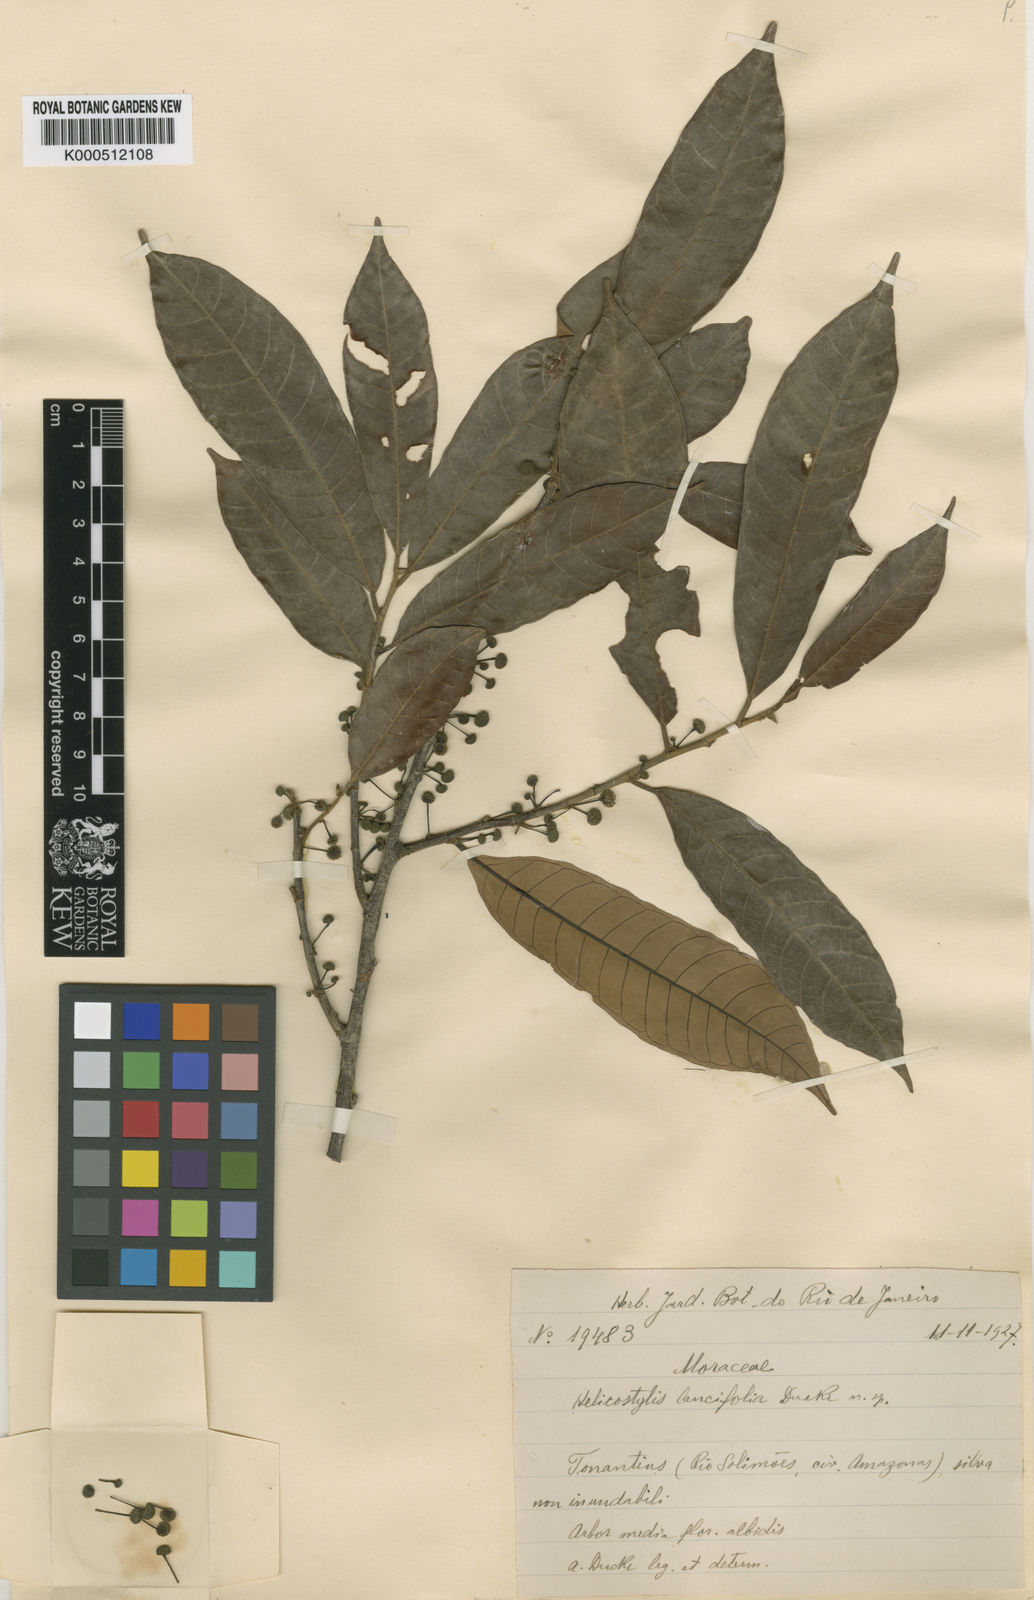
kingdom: Plantae
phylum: Tracheophyta
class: Magnoliopsida
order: Rosales
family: Moraceae
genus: Helicostylis
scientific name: Helicostylis elegans
